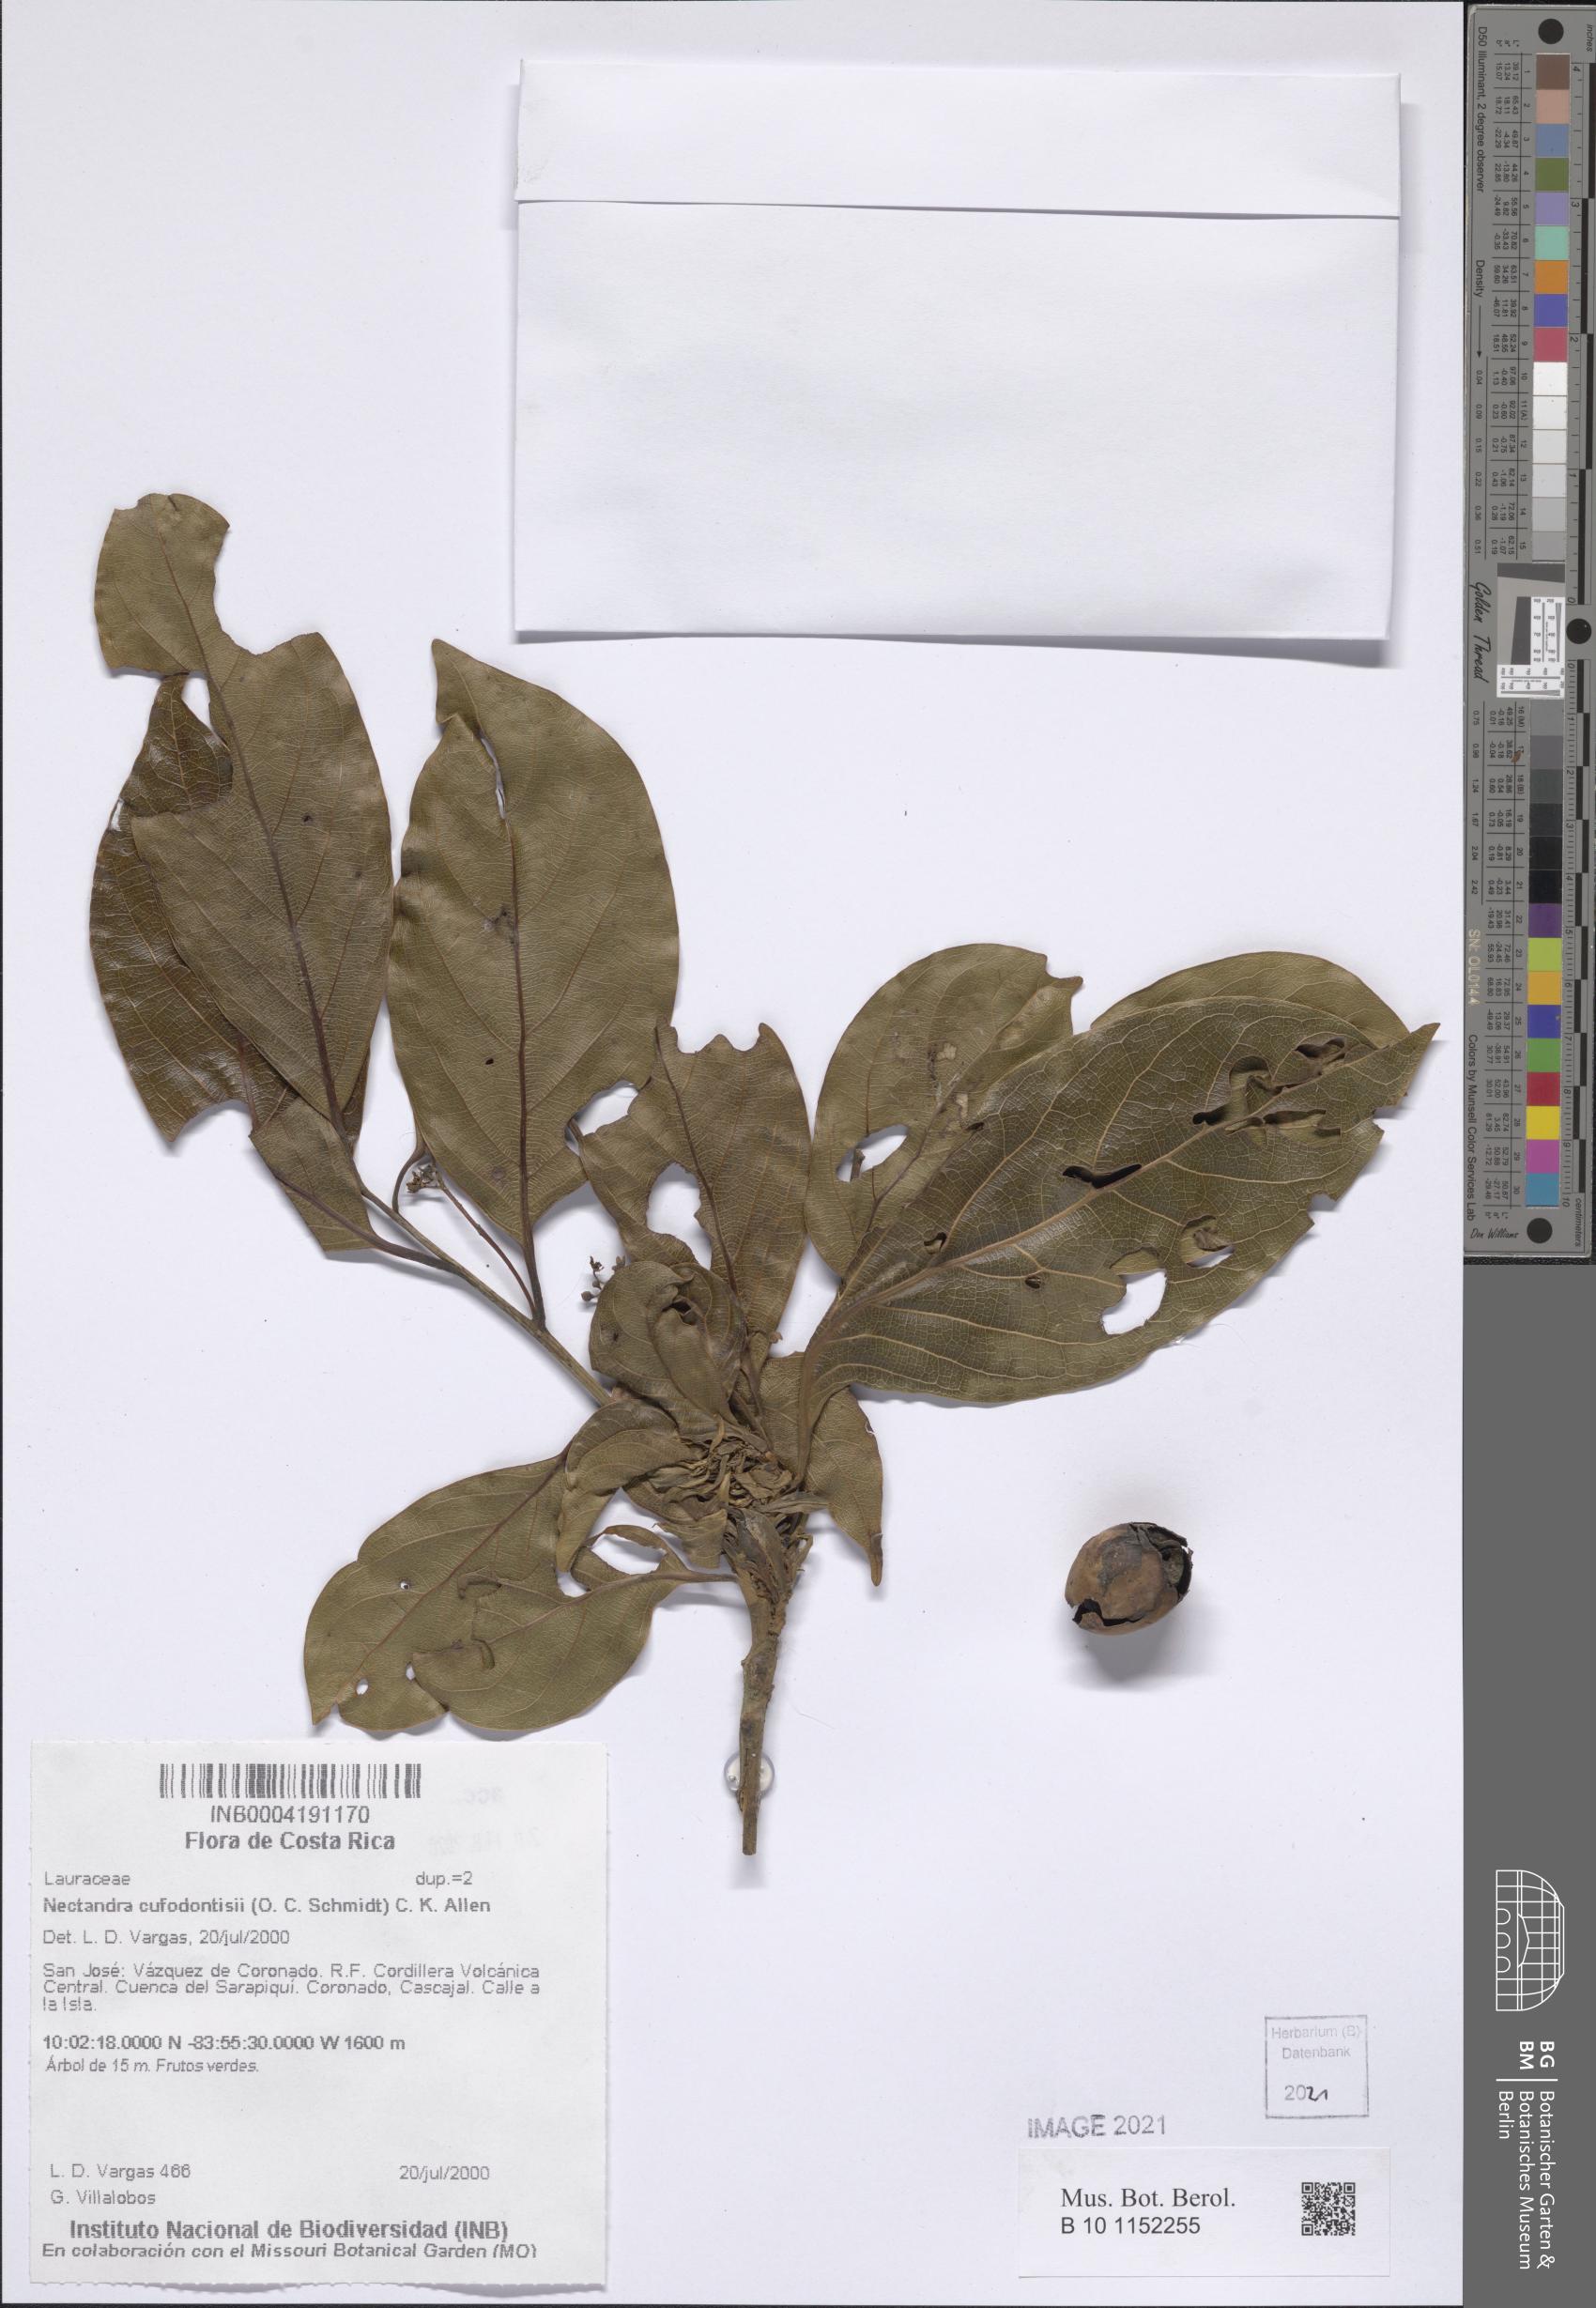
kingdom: Plantae
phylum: Tracheophyta
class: Magnoliopsida
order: Laurales
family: Lauraceae
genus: Damburneya
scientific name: Damburneya cufodontisii
